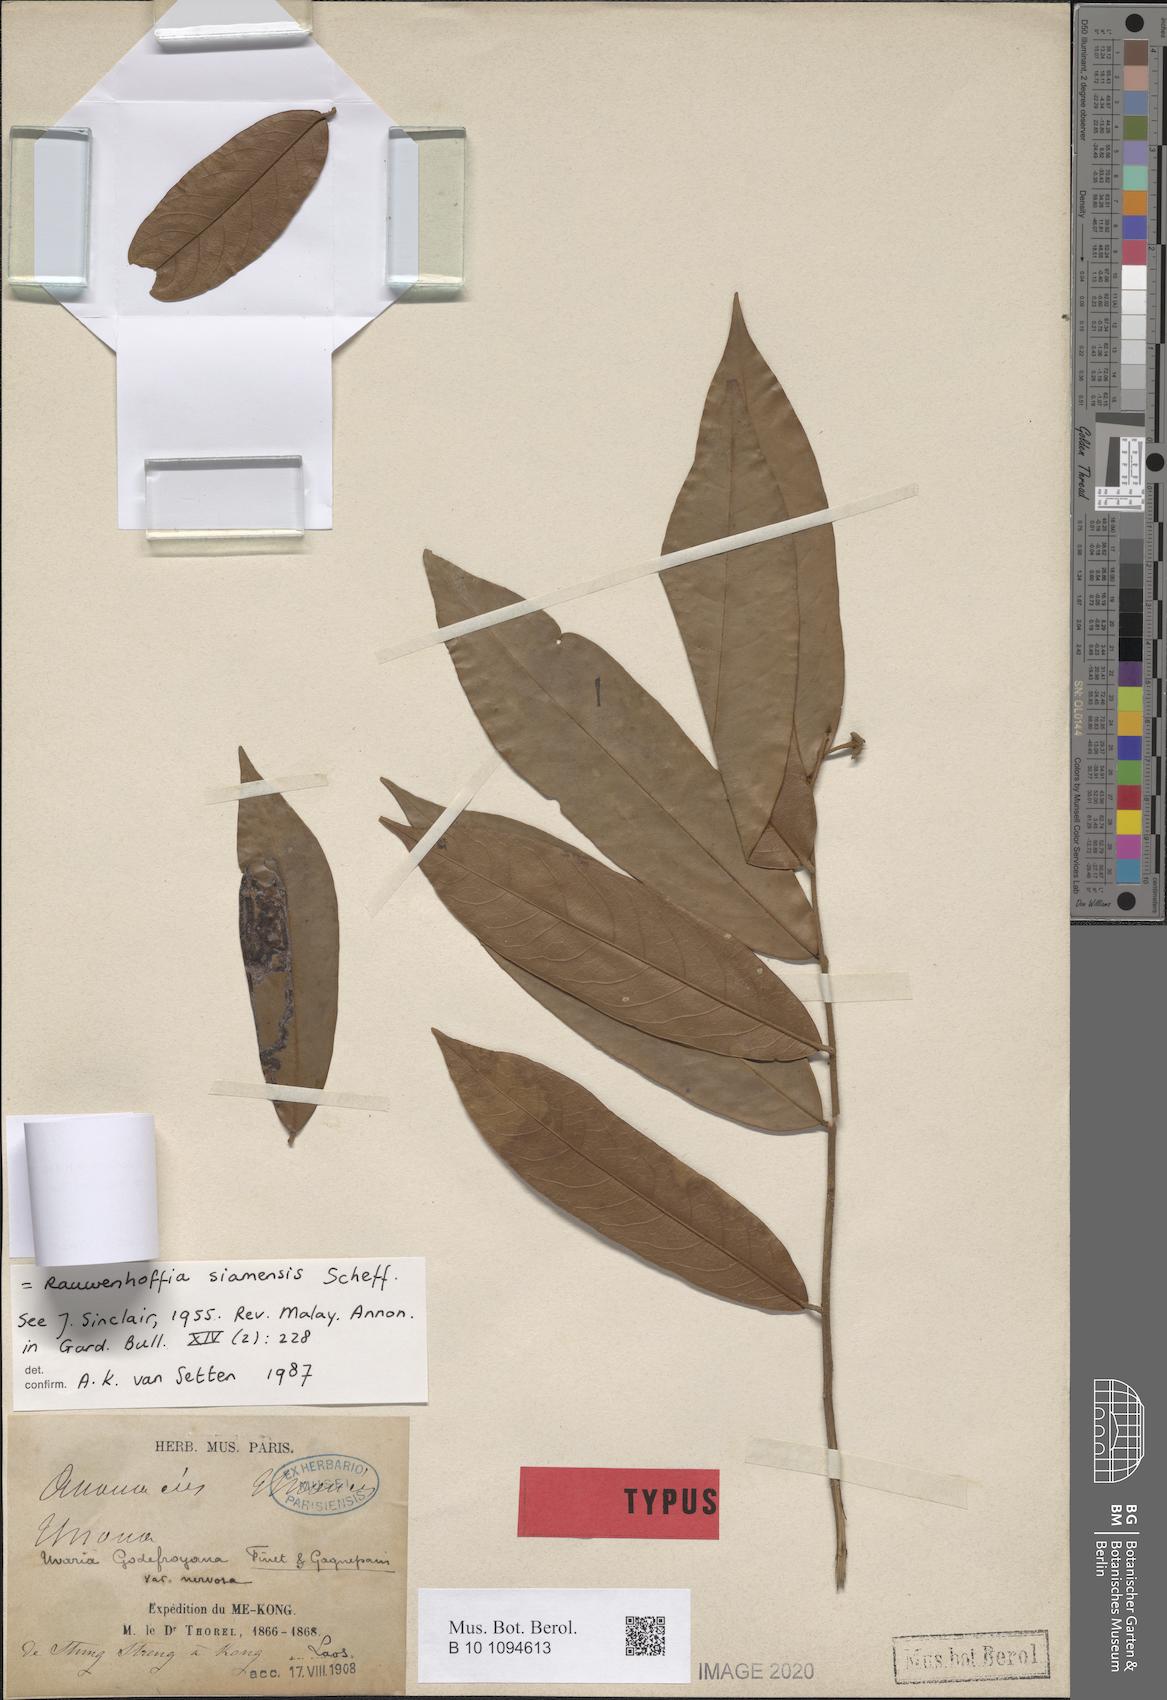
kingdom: Plantae
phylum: Tracheophyta
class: Magnoliopsida
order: Magnoliales
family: Annonaceae
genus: Uvaria
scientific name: Uvaria siamensis
